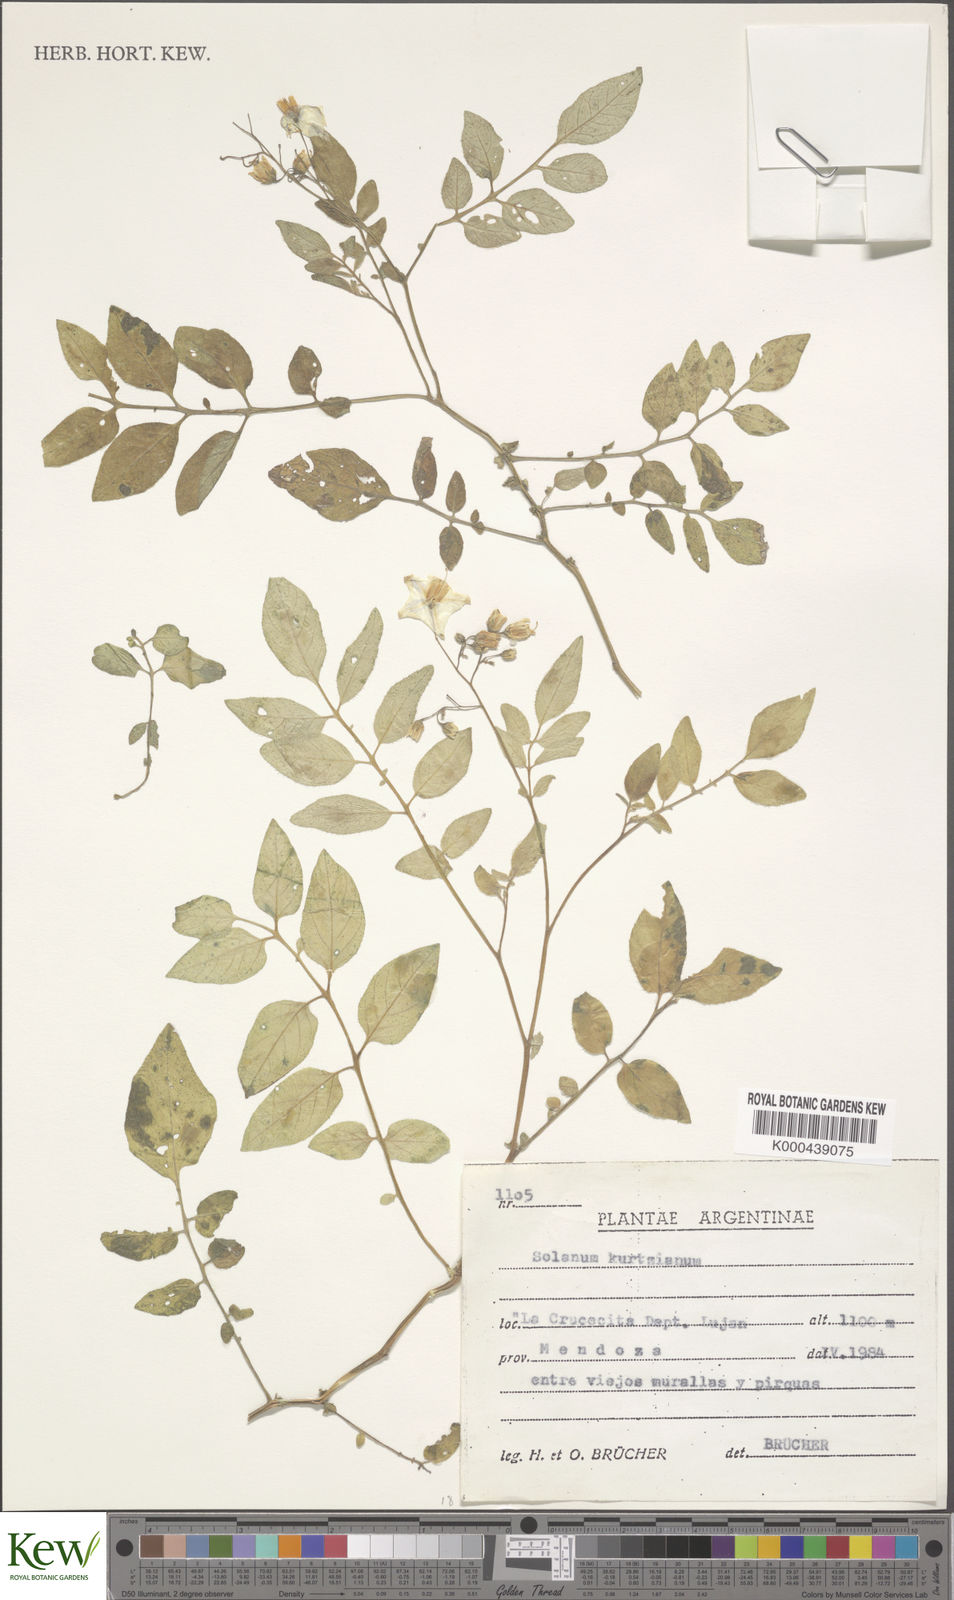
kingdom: Plantae
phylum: Tracheophyta
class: Magnoliopsida
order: Solanales
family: Solanaceae
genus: Solanum
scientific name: Solanum brevicaule
